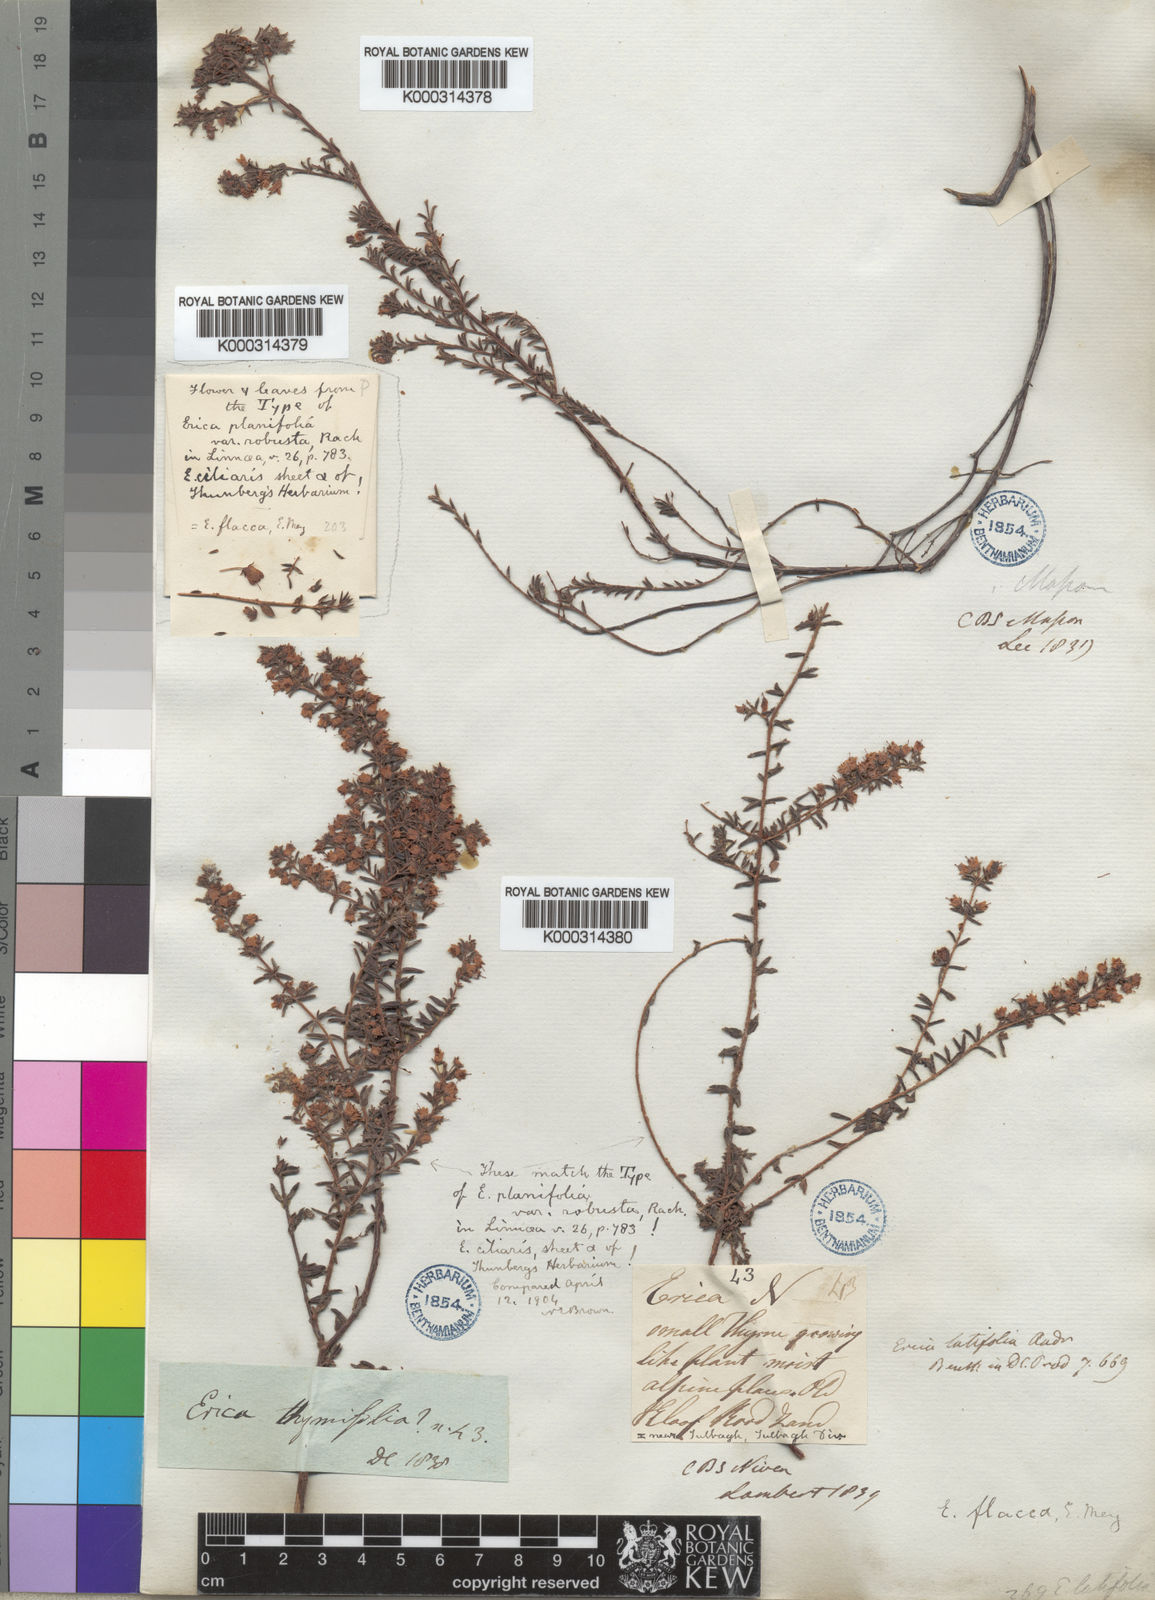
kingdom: Plantae
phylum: Tracheophyta
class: Magnoliopsida
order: Ericales
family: Ericaceae
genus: Erica
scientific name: Erica flacca
